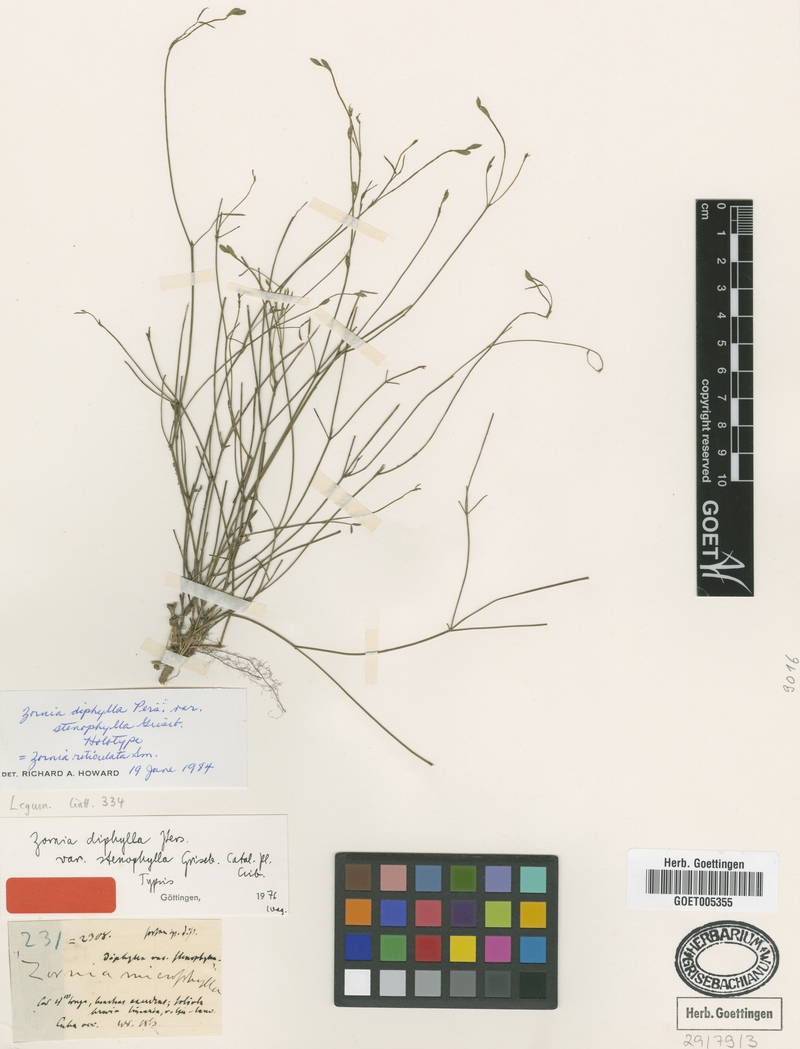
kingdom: Plantae
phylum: Tracheophyta
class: Magnoliopsida
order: Fabales
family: Fabaceae
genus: Zornia
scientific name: Zornia reticulata
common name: Reticulate viperina
